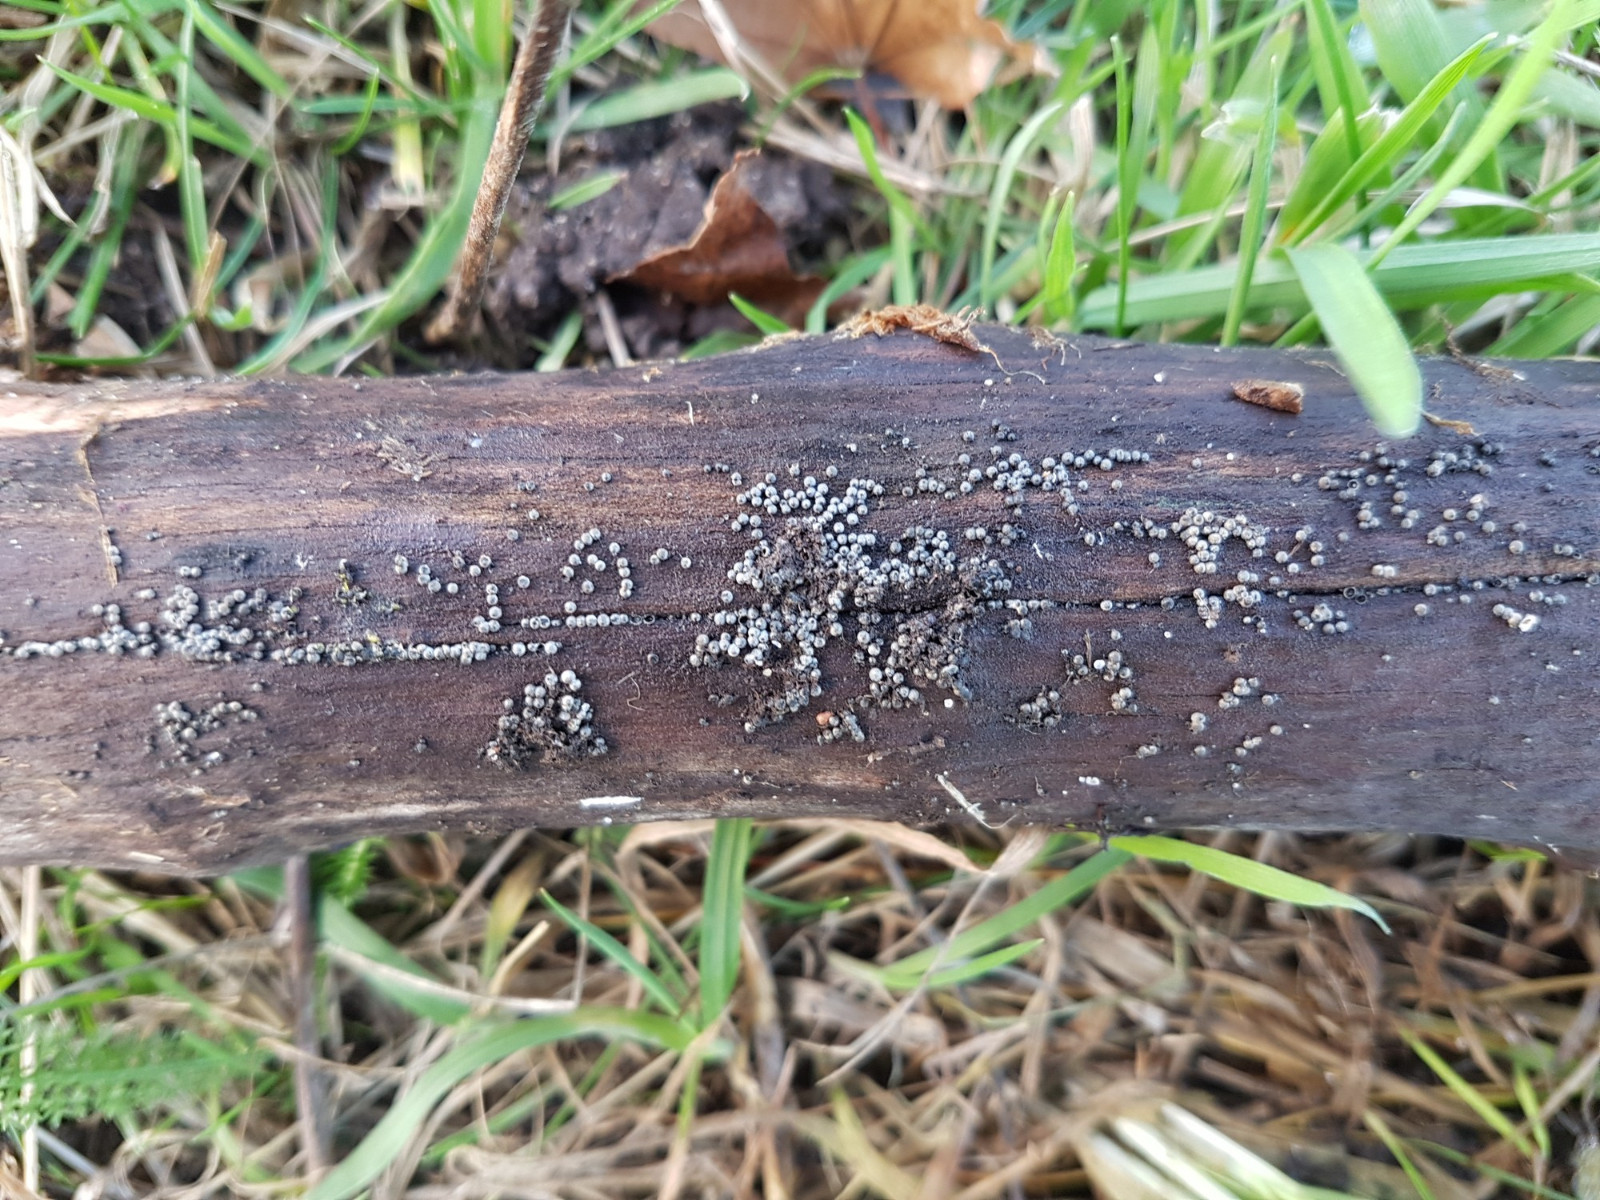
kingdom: Fungi
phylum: Ascomycota
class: Sordariomycetes
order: Sordariales
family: Lasiosphaeriaceae
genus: Lasiosphaeria
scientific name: Lasiosphaeria ovina
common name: fåre-kernesvamp
